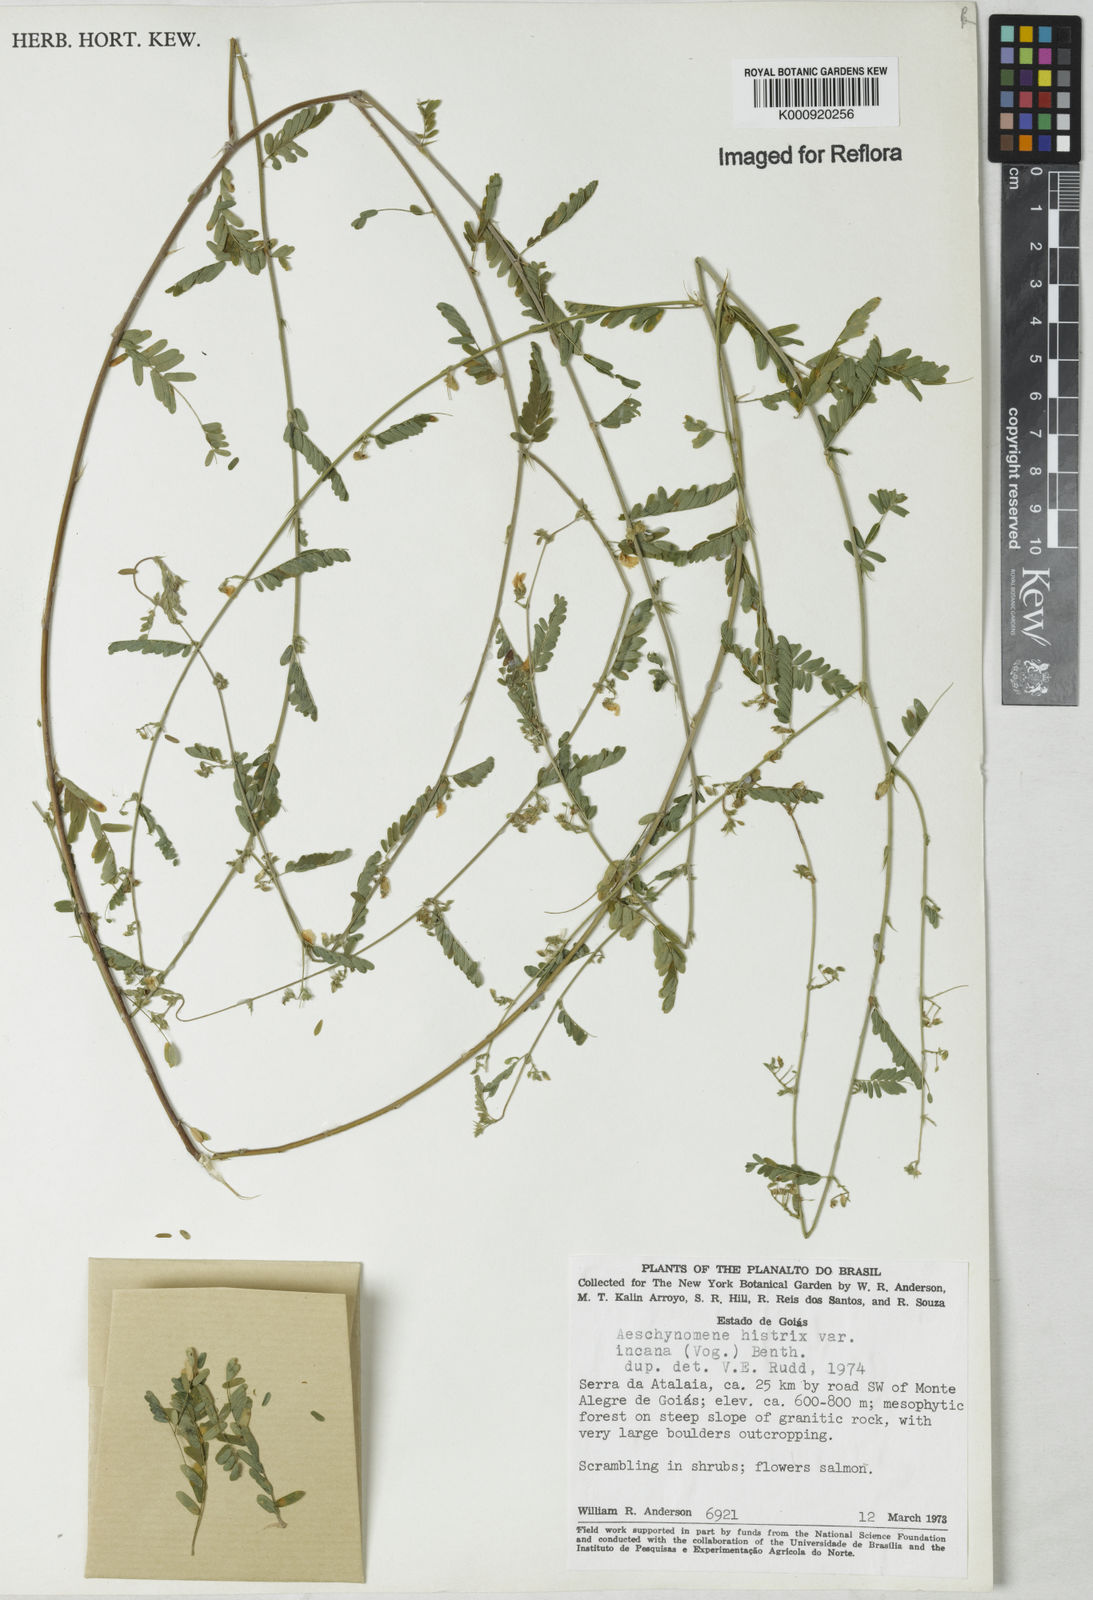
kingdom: Plantae
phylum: Tracheophyta
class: Magnoliopsida
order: Fabales
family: Fabaceae
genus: Ctenodon
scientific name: Ctenodon histrix
